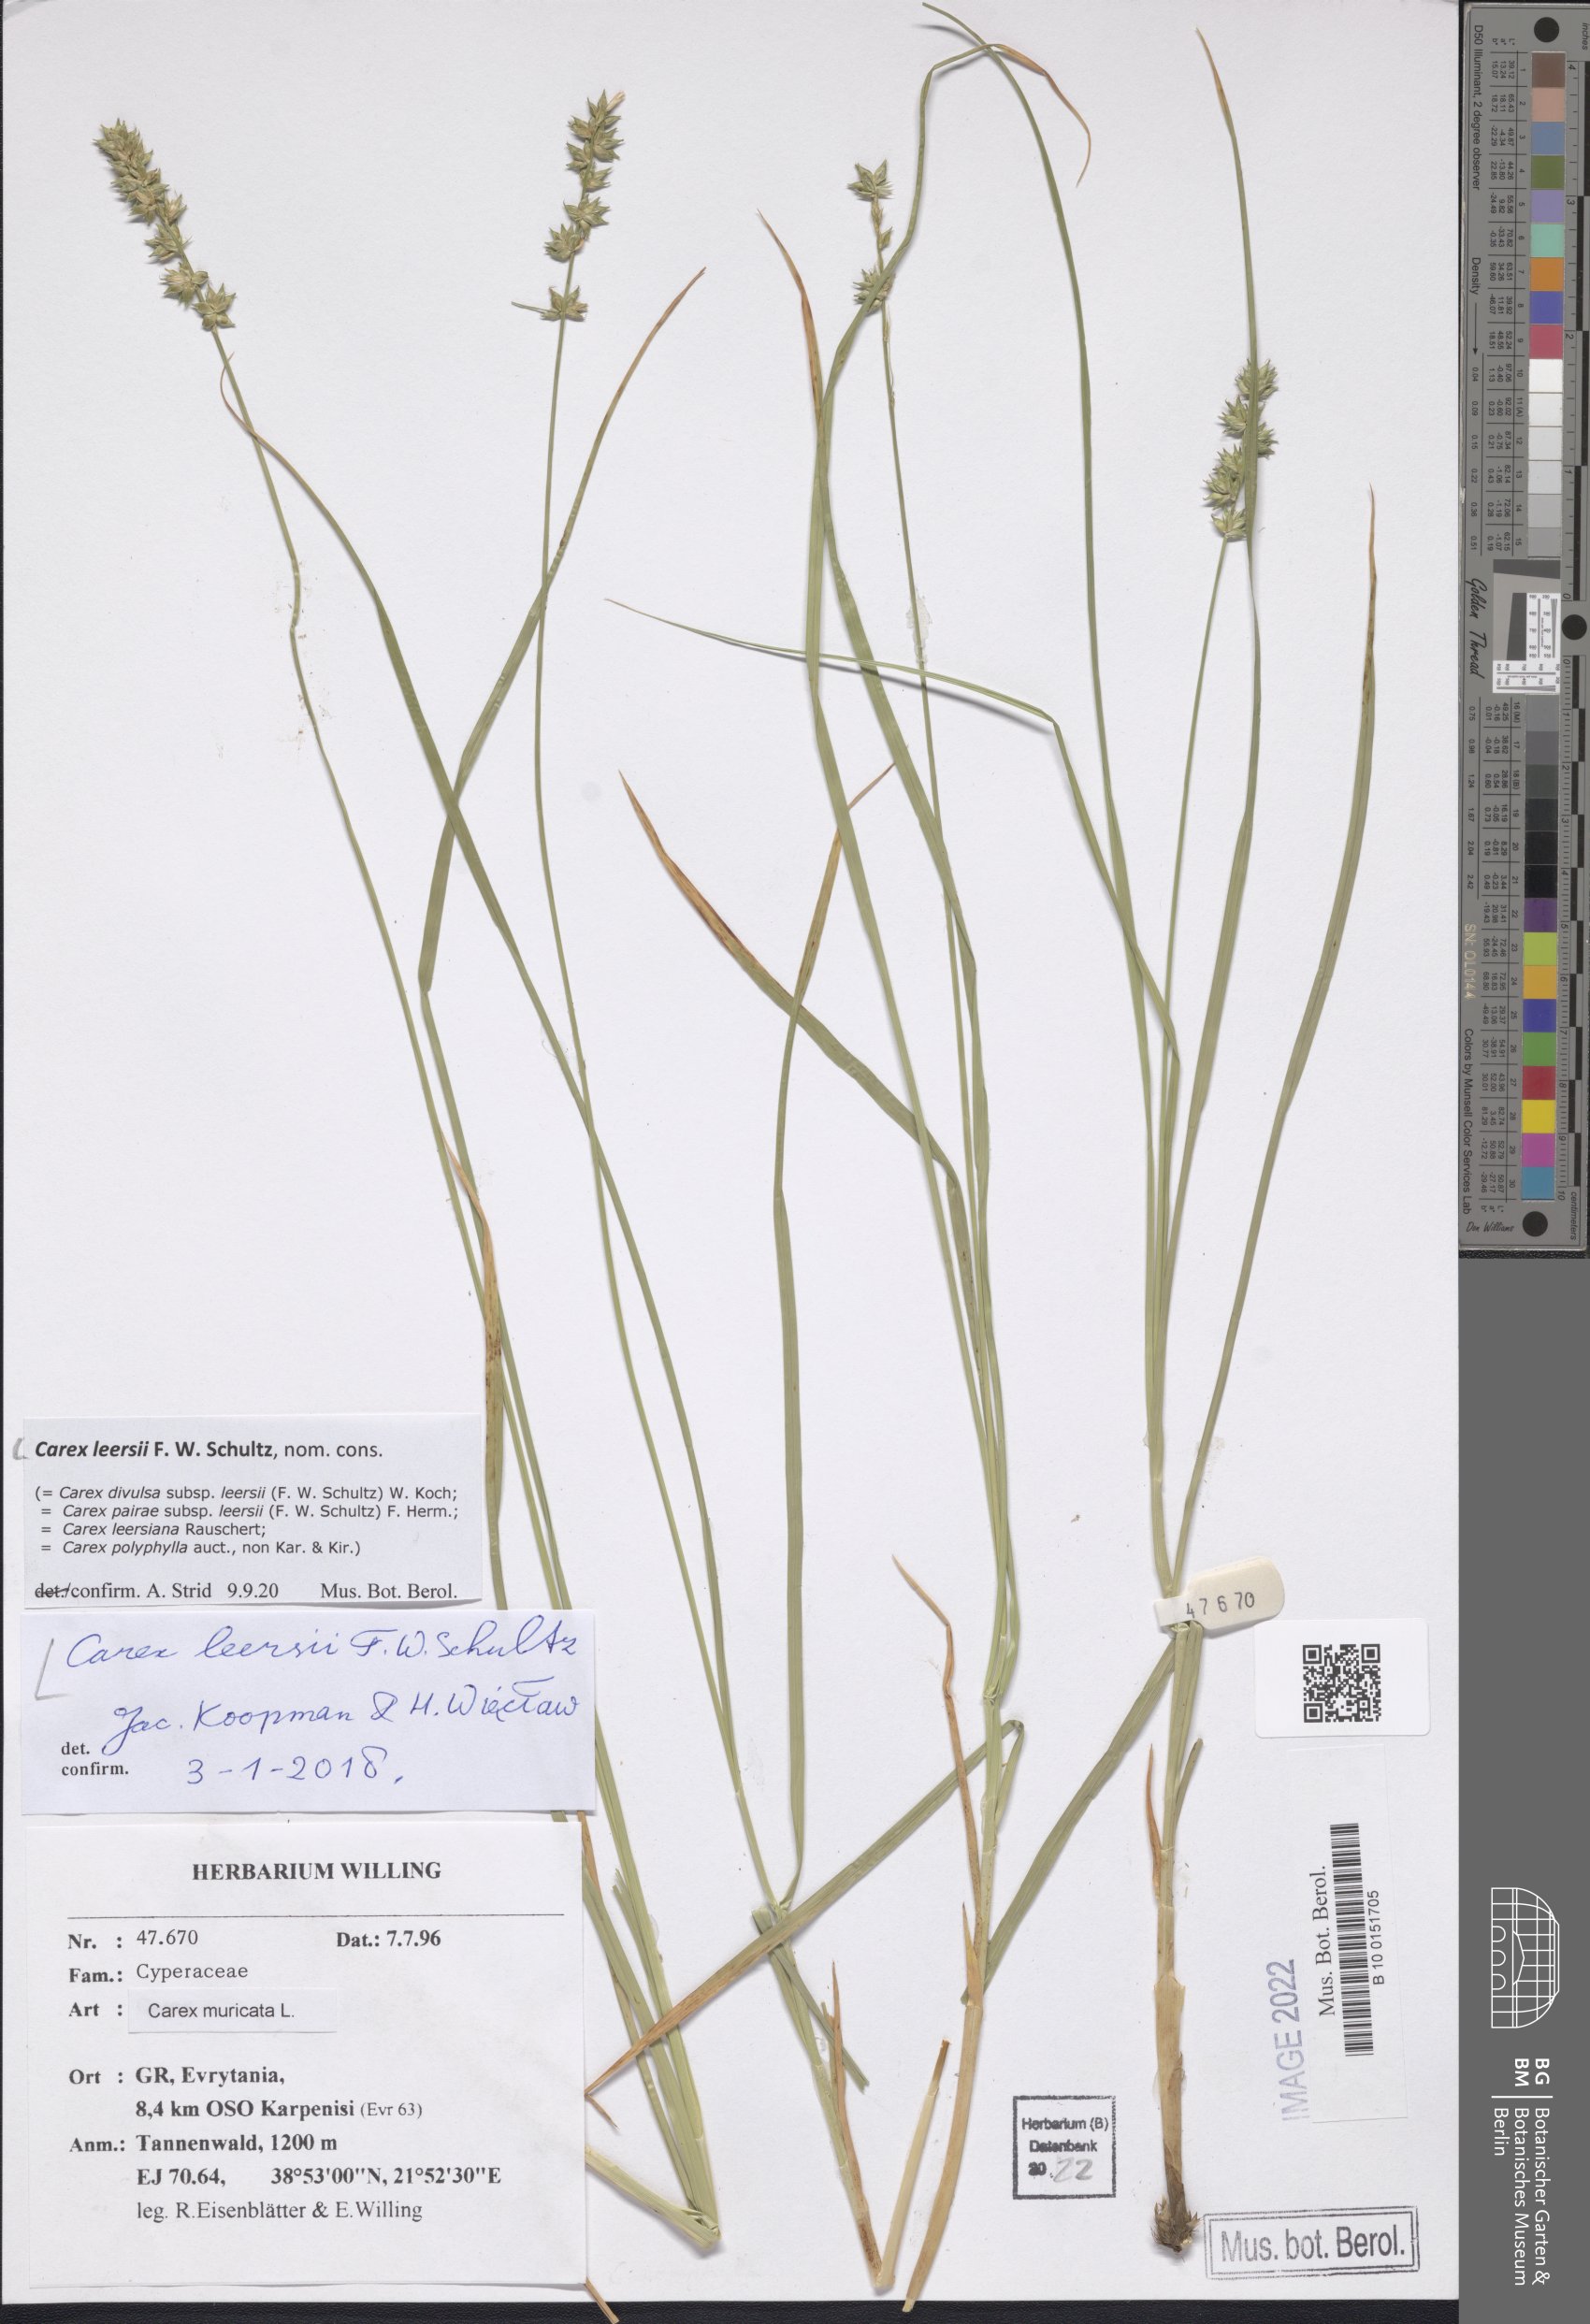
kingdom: Plantae
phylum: Tracheophyta
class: Liliopsida
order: Poales
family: Cyperaceae
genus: Carex
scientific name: Carex leersii
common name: Leers' sedge
